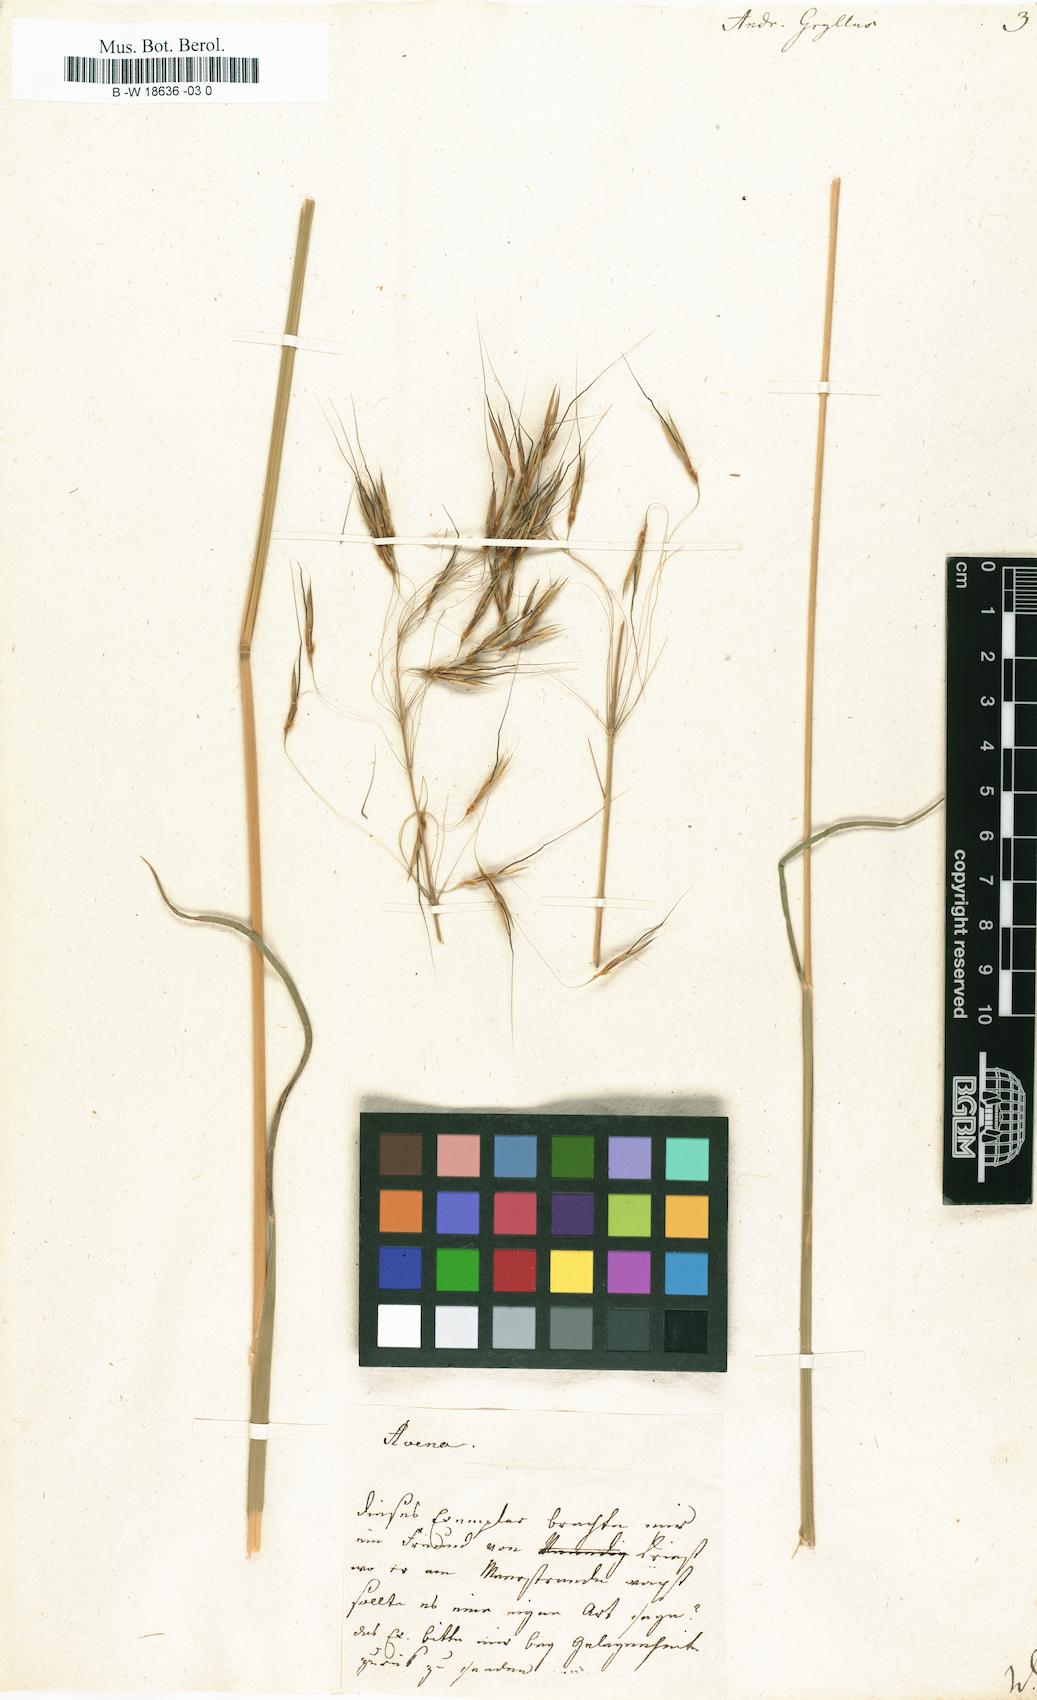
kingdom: Plantae
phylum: Tracheophyta
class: Liliopsida
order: Poales
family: Poaceae
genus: Chrysopogon
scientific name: Chrysopogon gryllus
